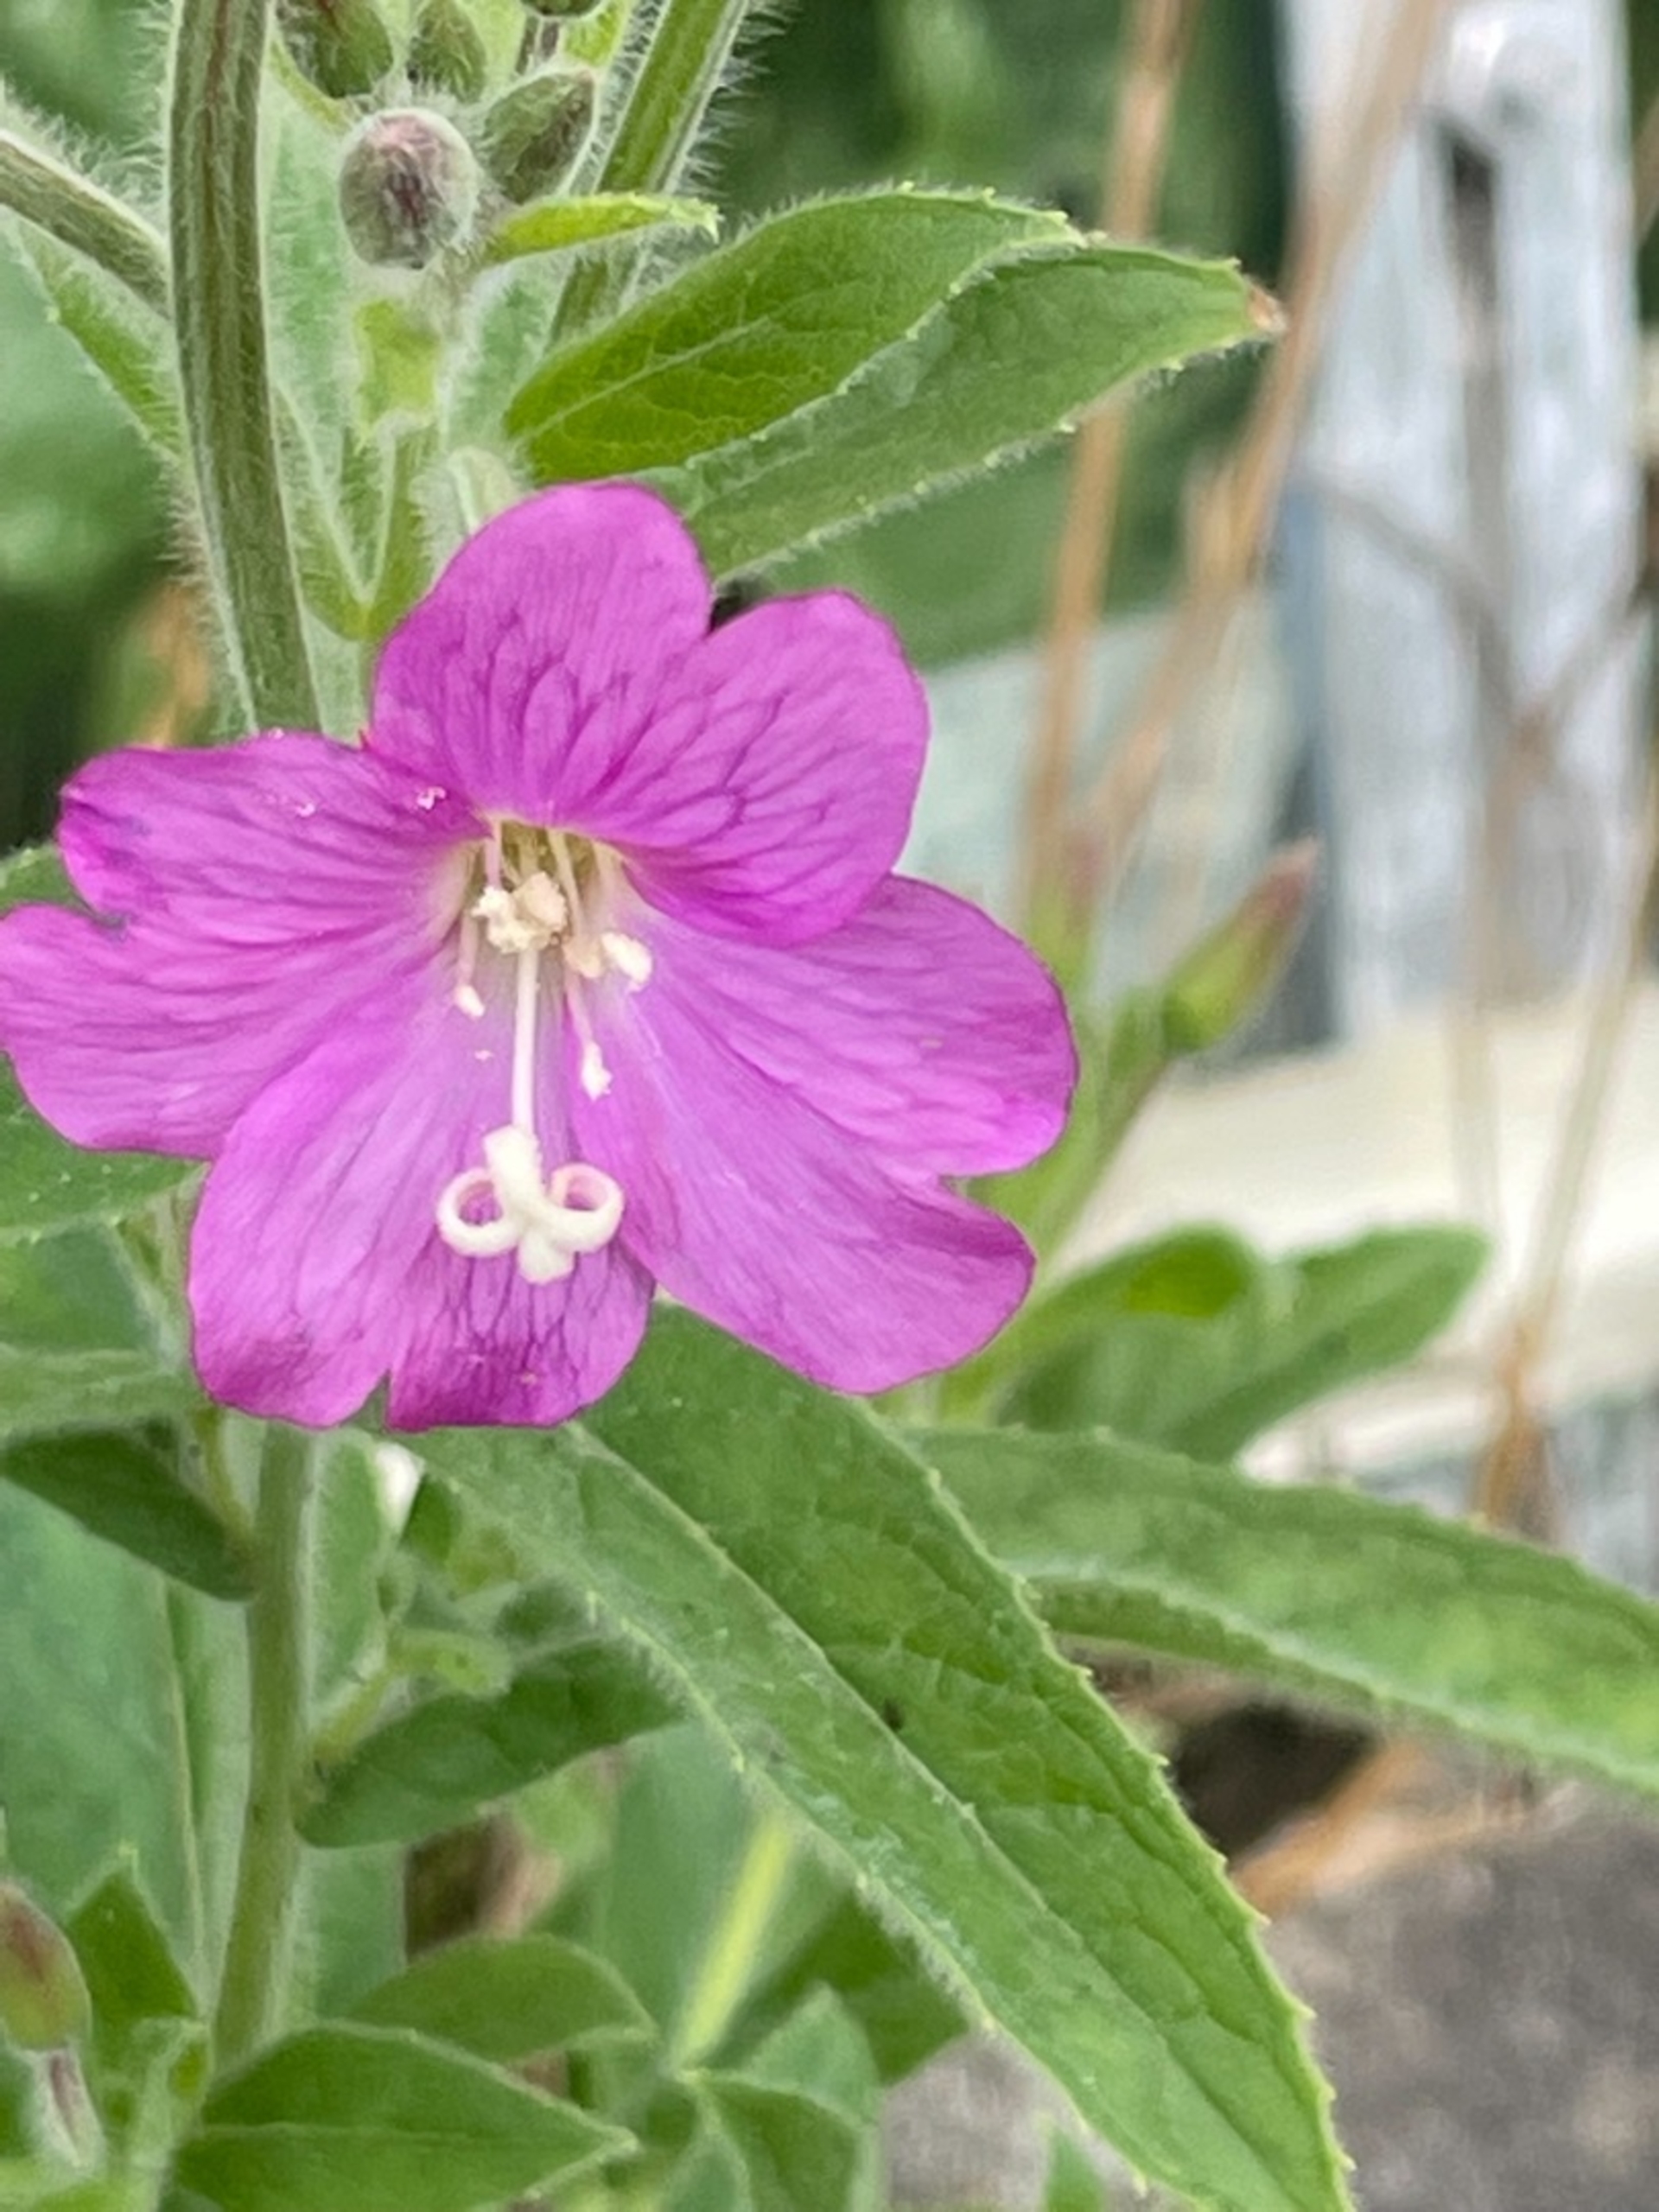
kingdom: Plantae
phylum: Tracheophyta
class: Magnoliopsida
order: Myrtales
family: Onagraceae
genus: Epilobium
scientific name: Epilobium hirsutum
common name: Lådden dueurt
